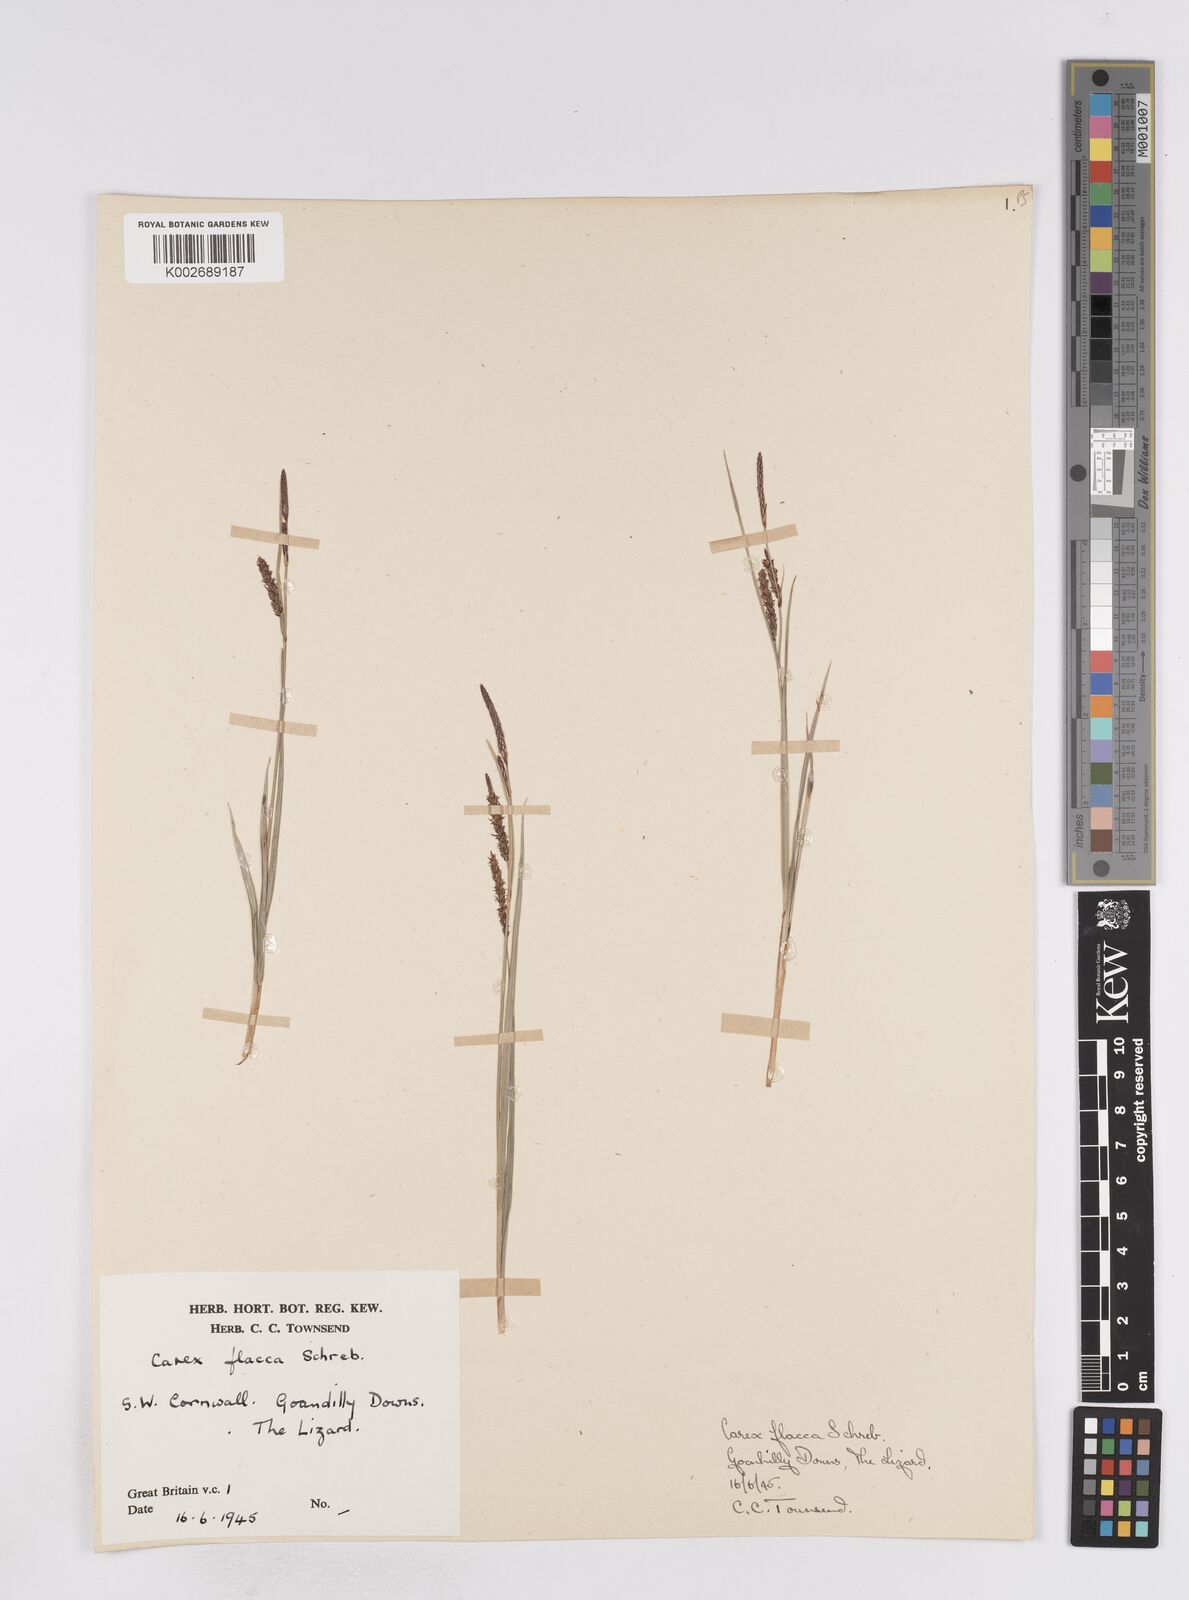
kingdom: Plantae
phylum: Tracheophyta
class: Liliopsida
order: Poales
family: Cyperaceae
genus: Carex
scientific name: Carex flacca
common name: Glaucous sedge
